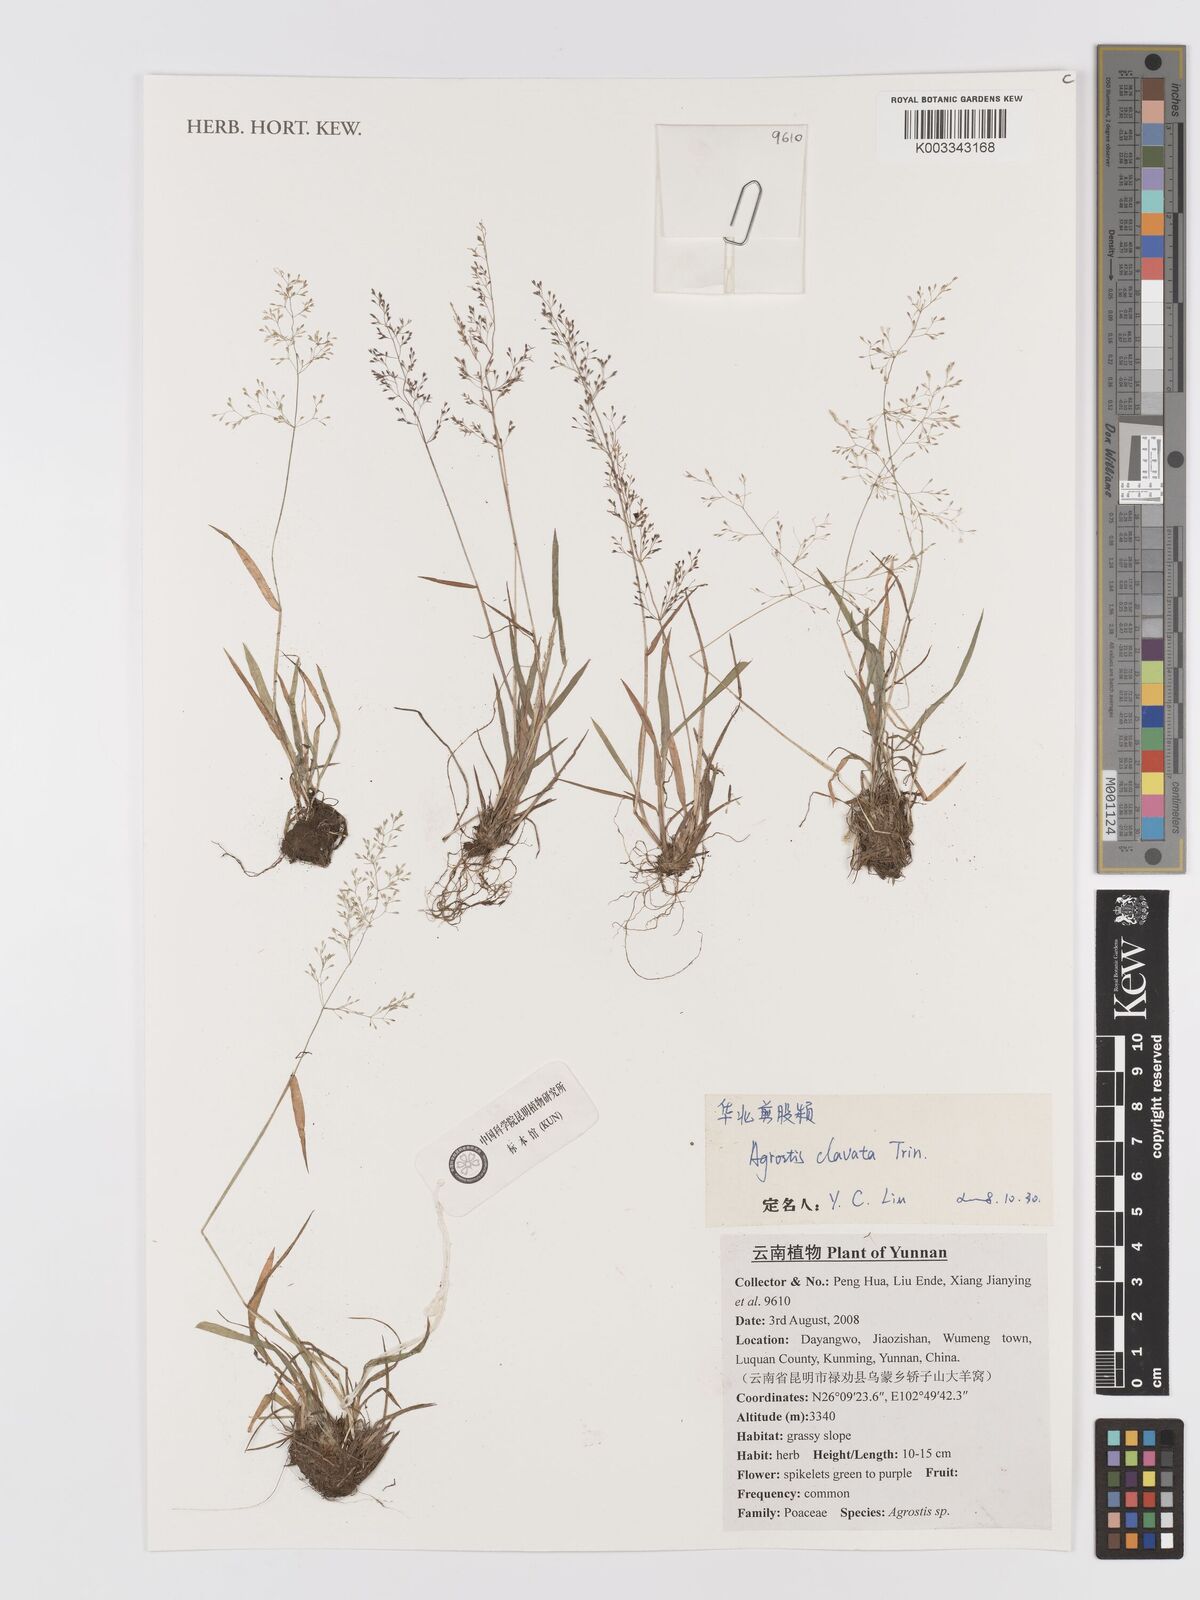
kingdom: Plantae
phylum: Tracheophyta
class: Liliopsida
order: Poales
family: Poaceae
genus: Agrostis
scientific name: Agrostis clavata
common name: Clavate bent
